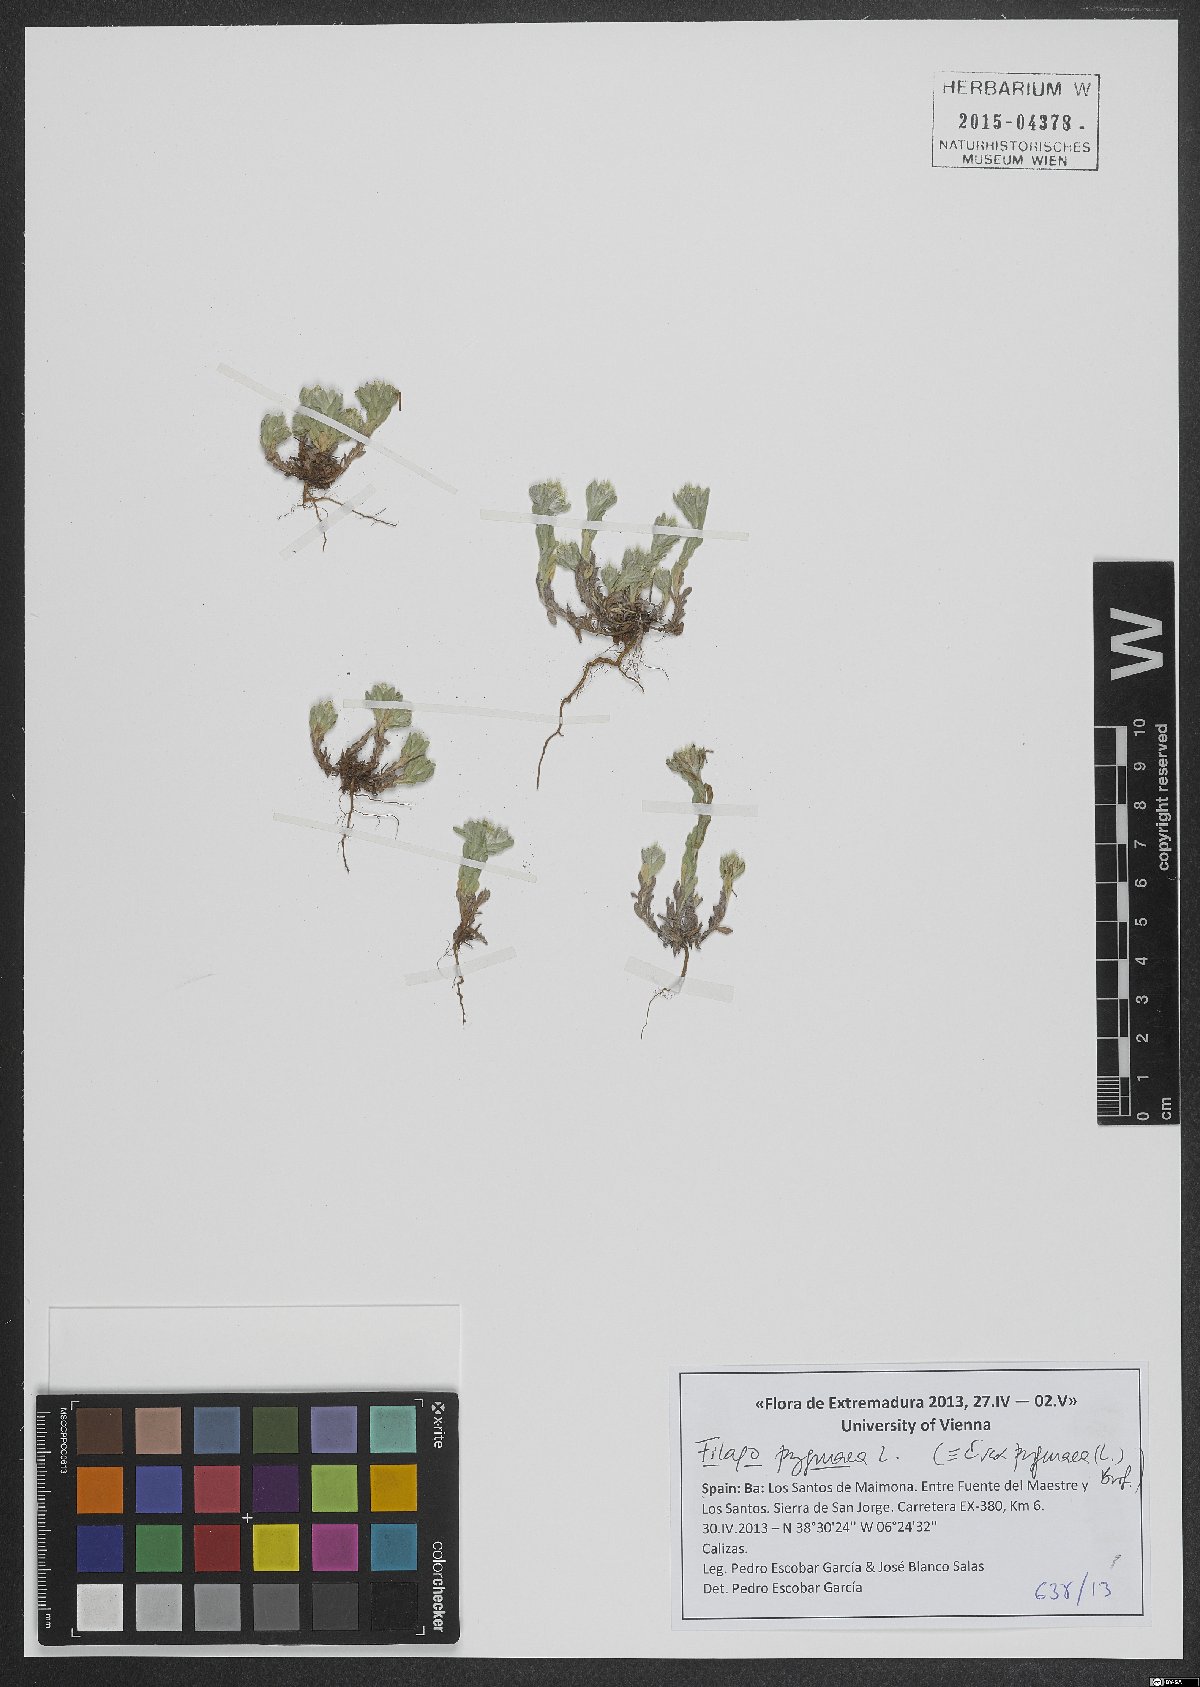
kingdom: Plantae
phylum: Tracheophyta
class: Magnoliopsida
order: Asterales
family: Asteraceae
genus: Filago
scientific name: Filago pygmaea
